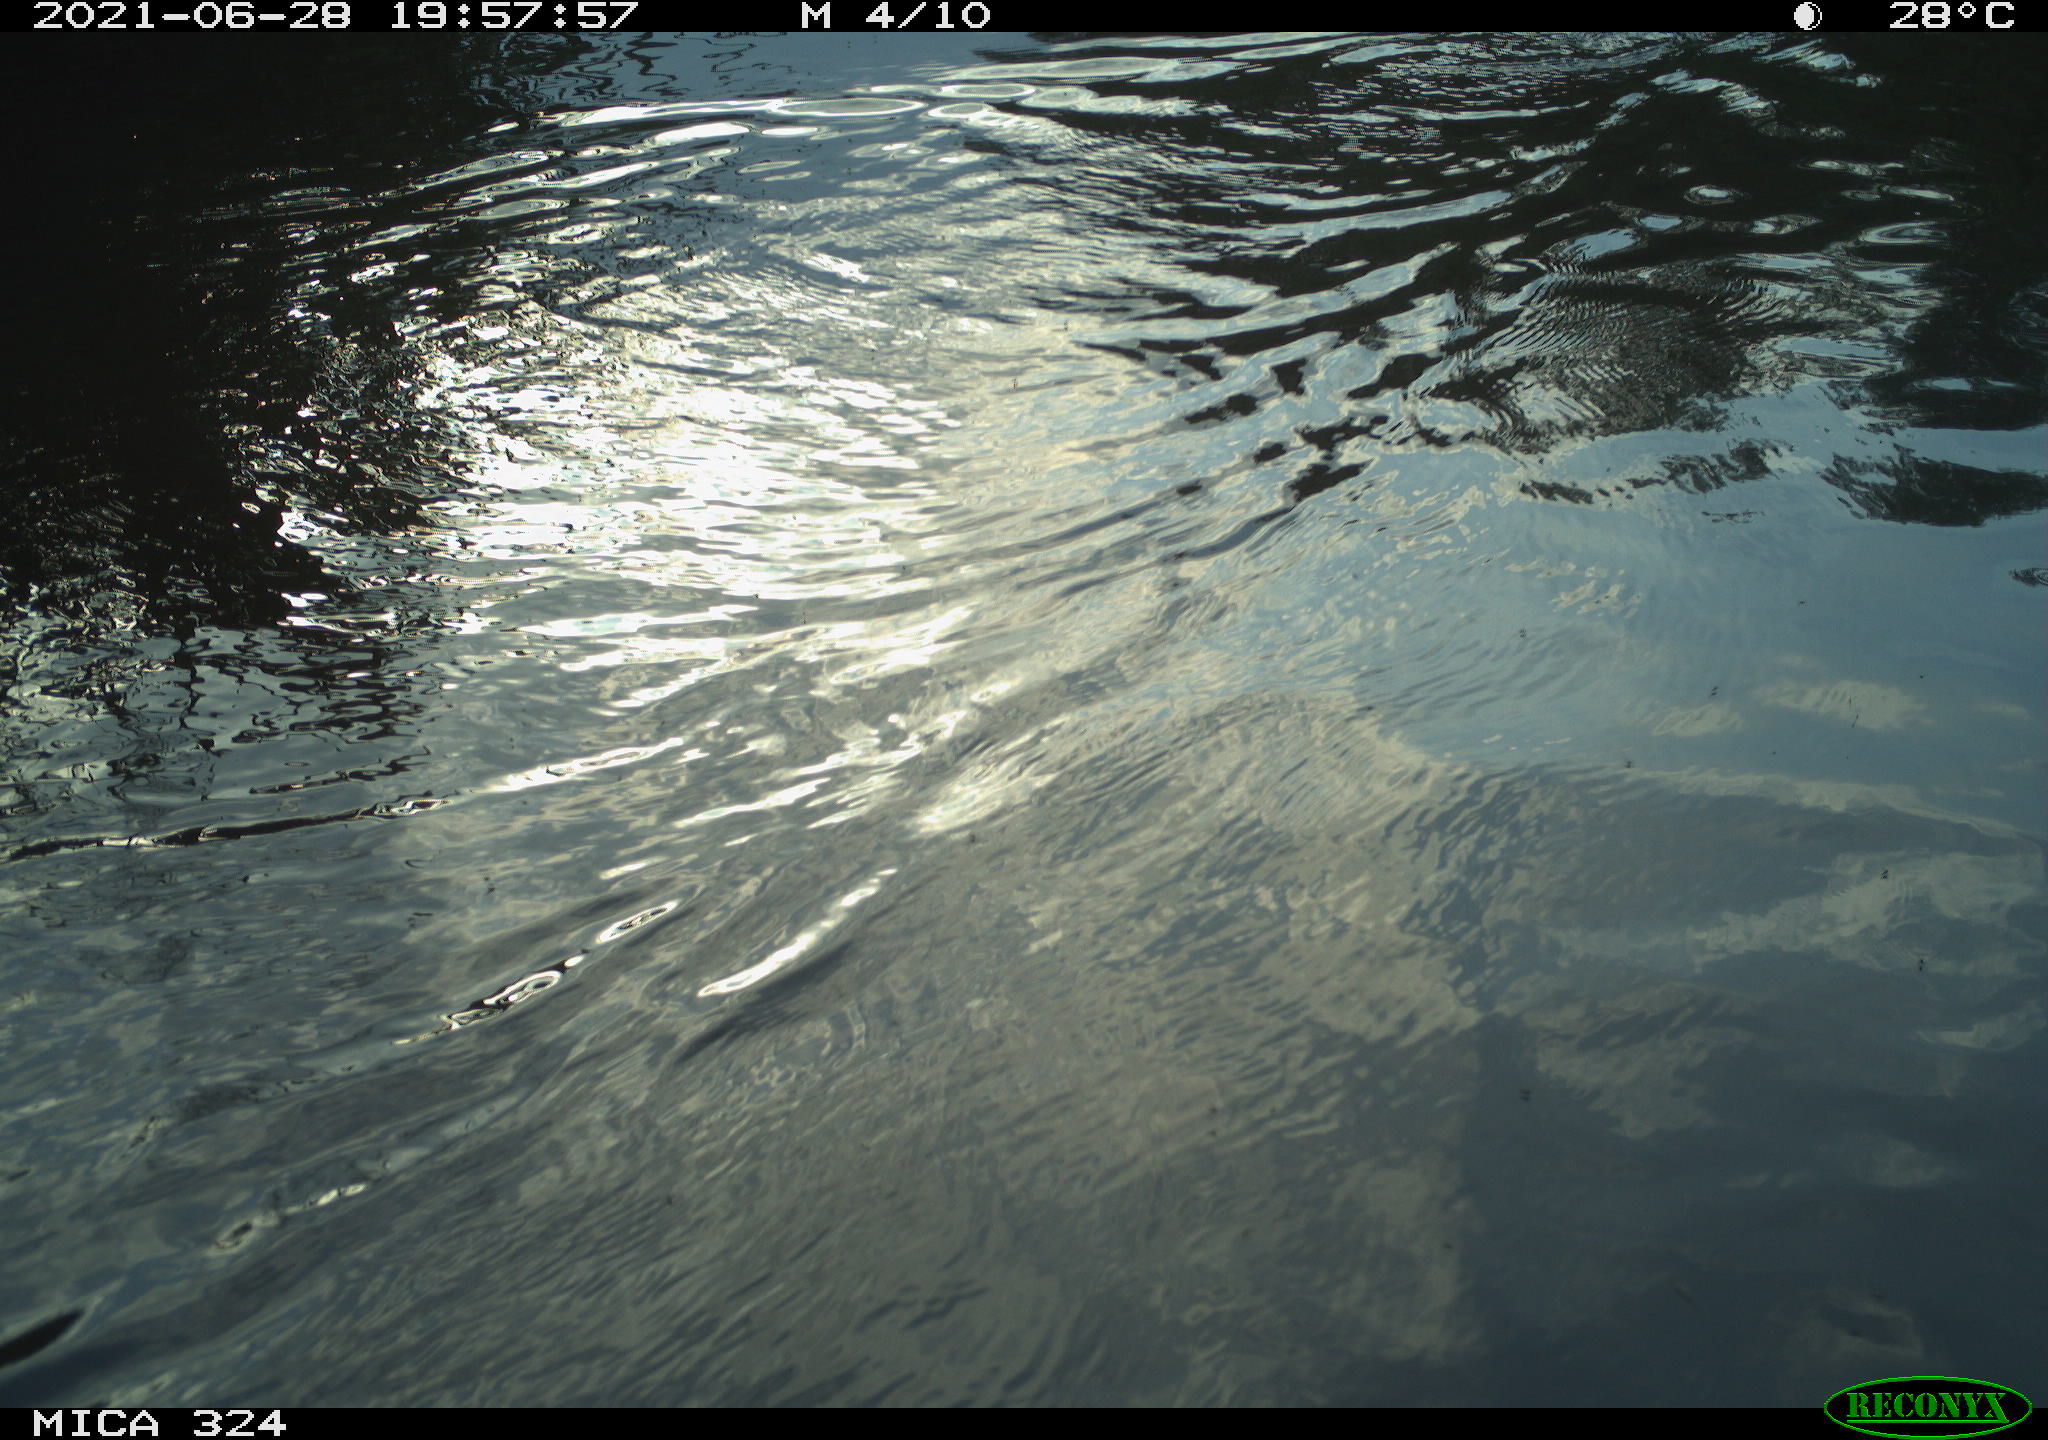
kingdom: Animalia
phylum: Chordata
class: Mammalia
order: Rodentia
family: Cricetidae
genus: Ondatra
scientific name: Ondatra zibethicus
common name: Muskrat
